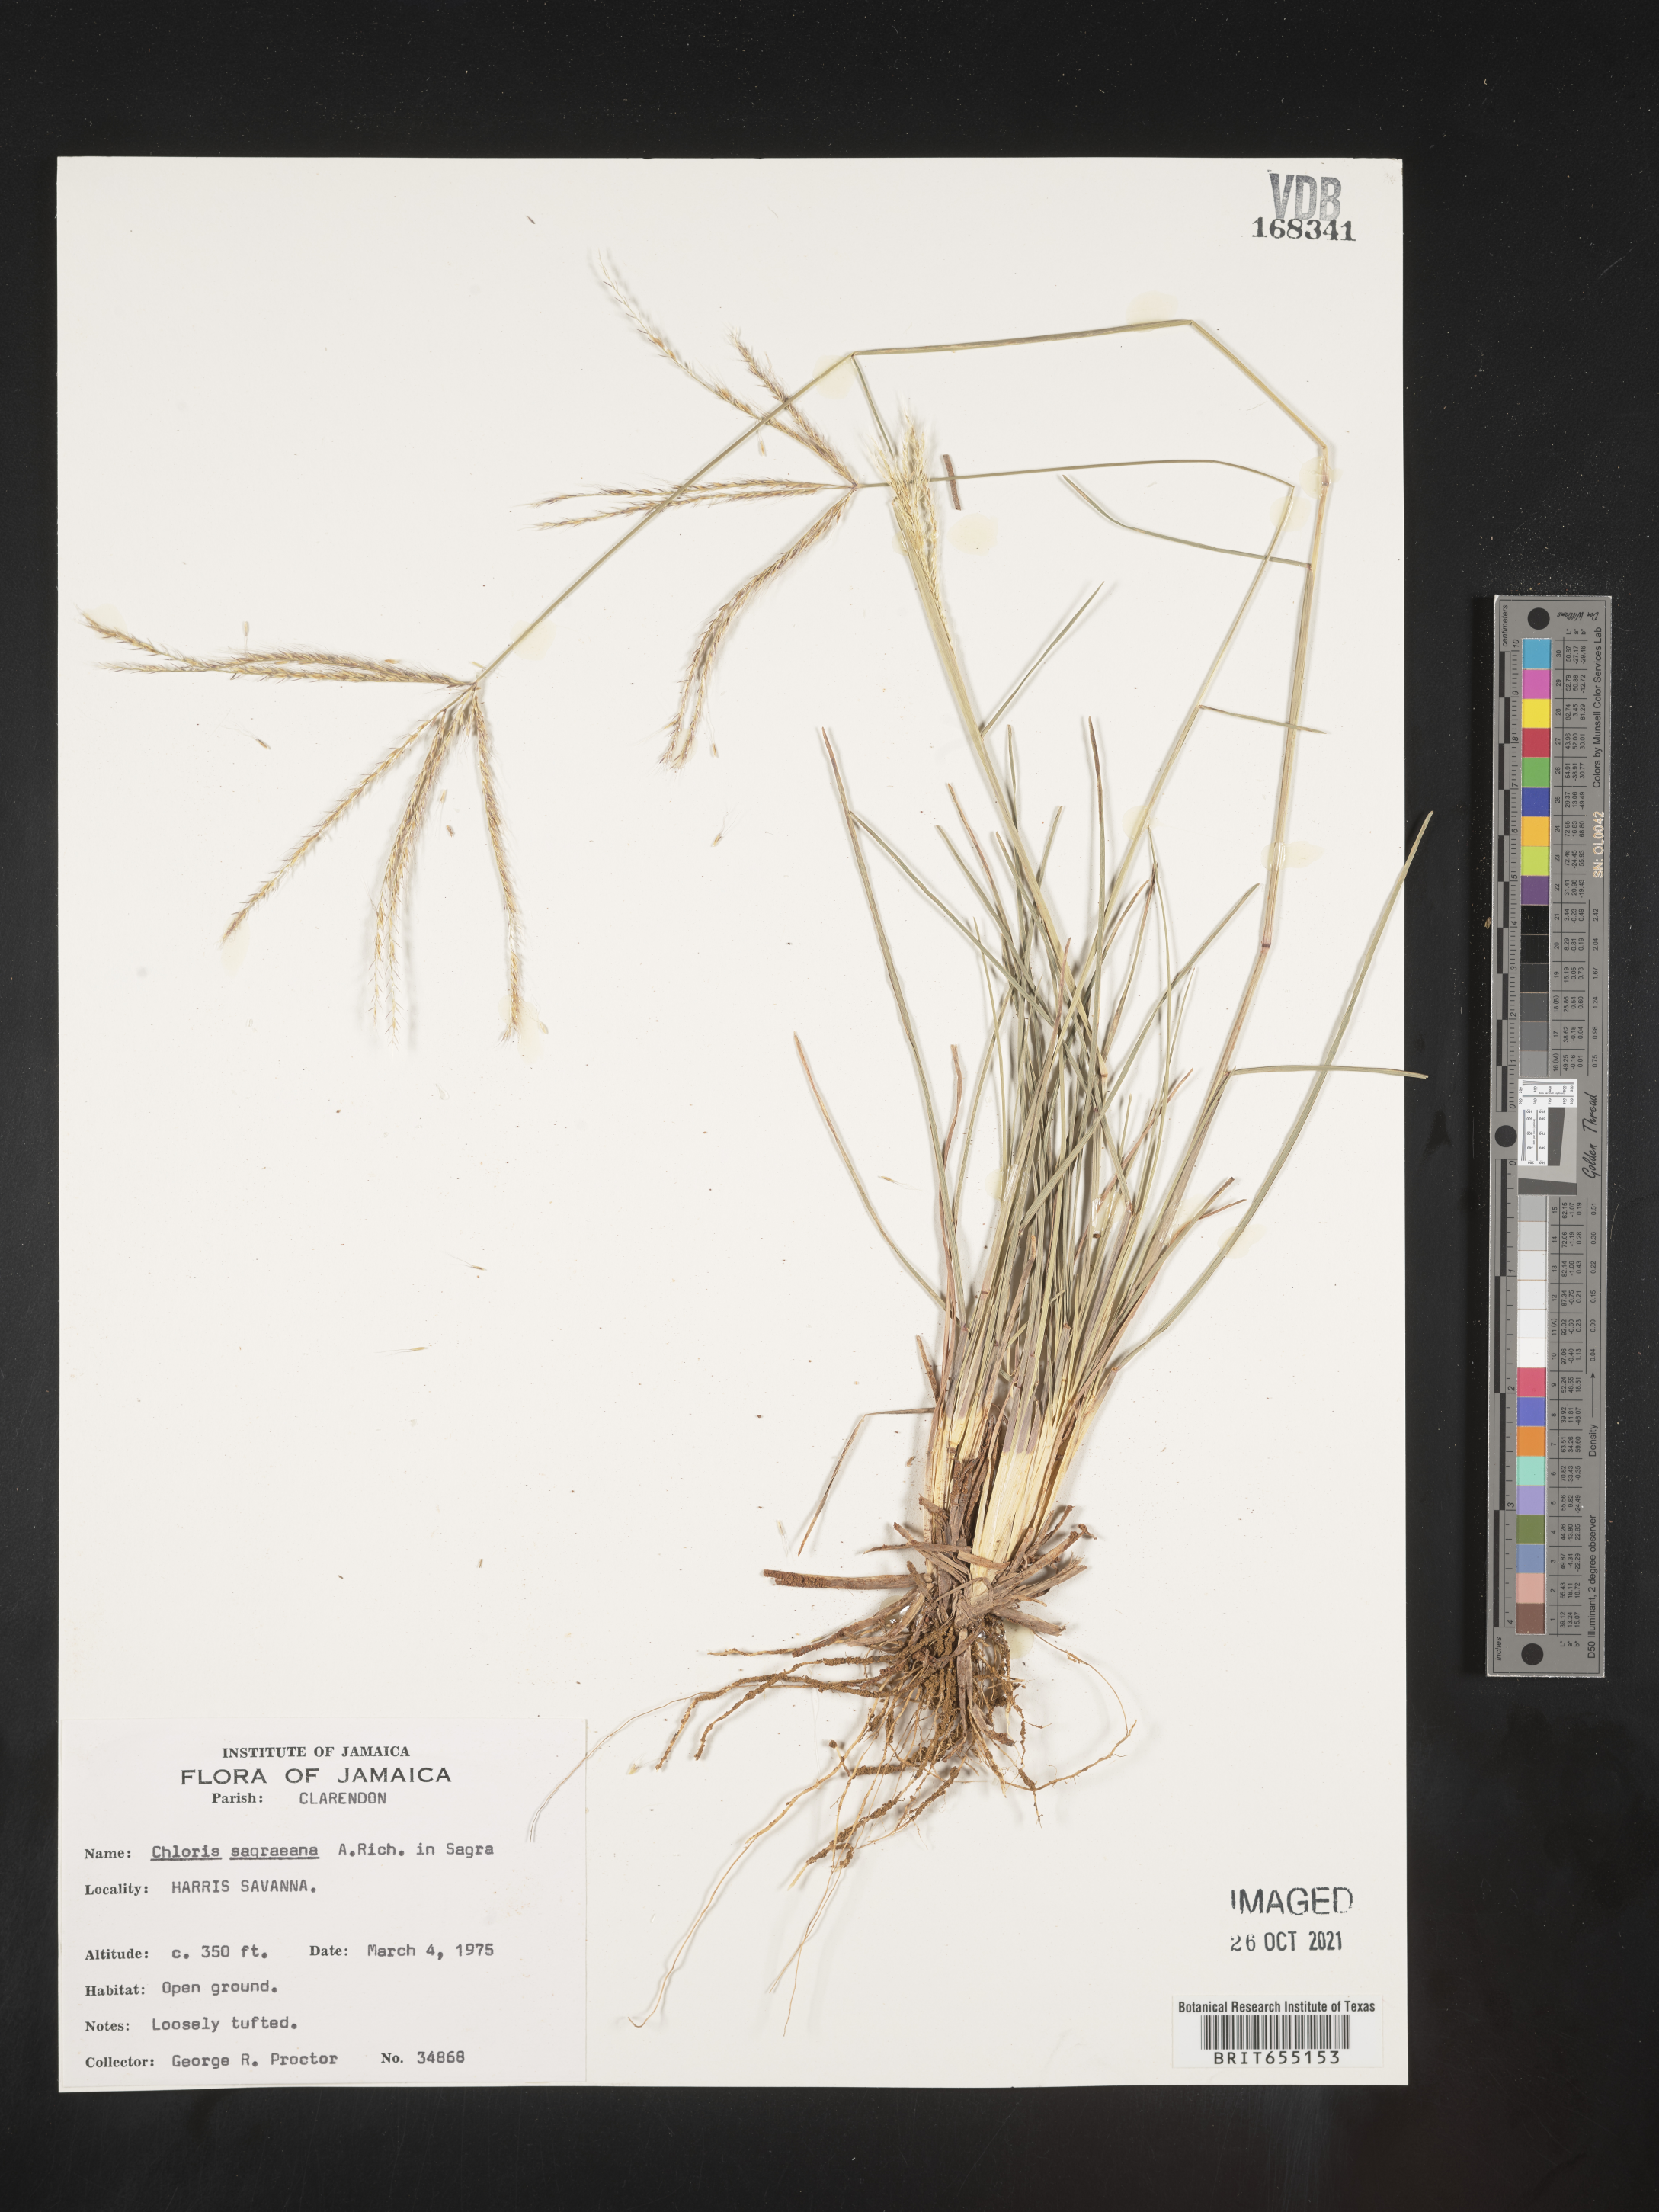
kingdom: Plantae
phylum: Tracheophyta
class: Liliopsida
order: Poales
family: Poaceae
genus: Chloris
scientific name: Chloris
